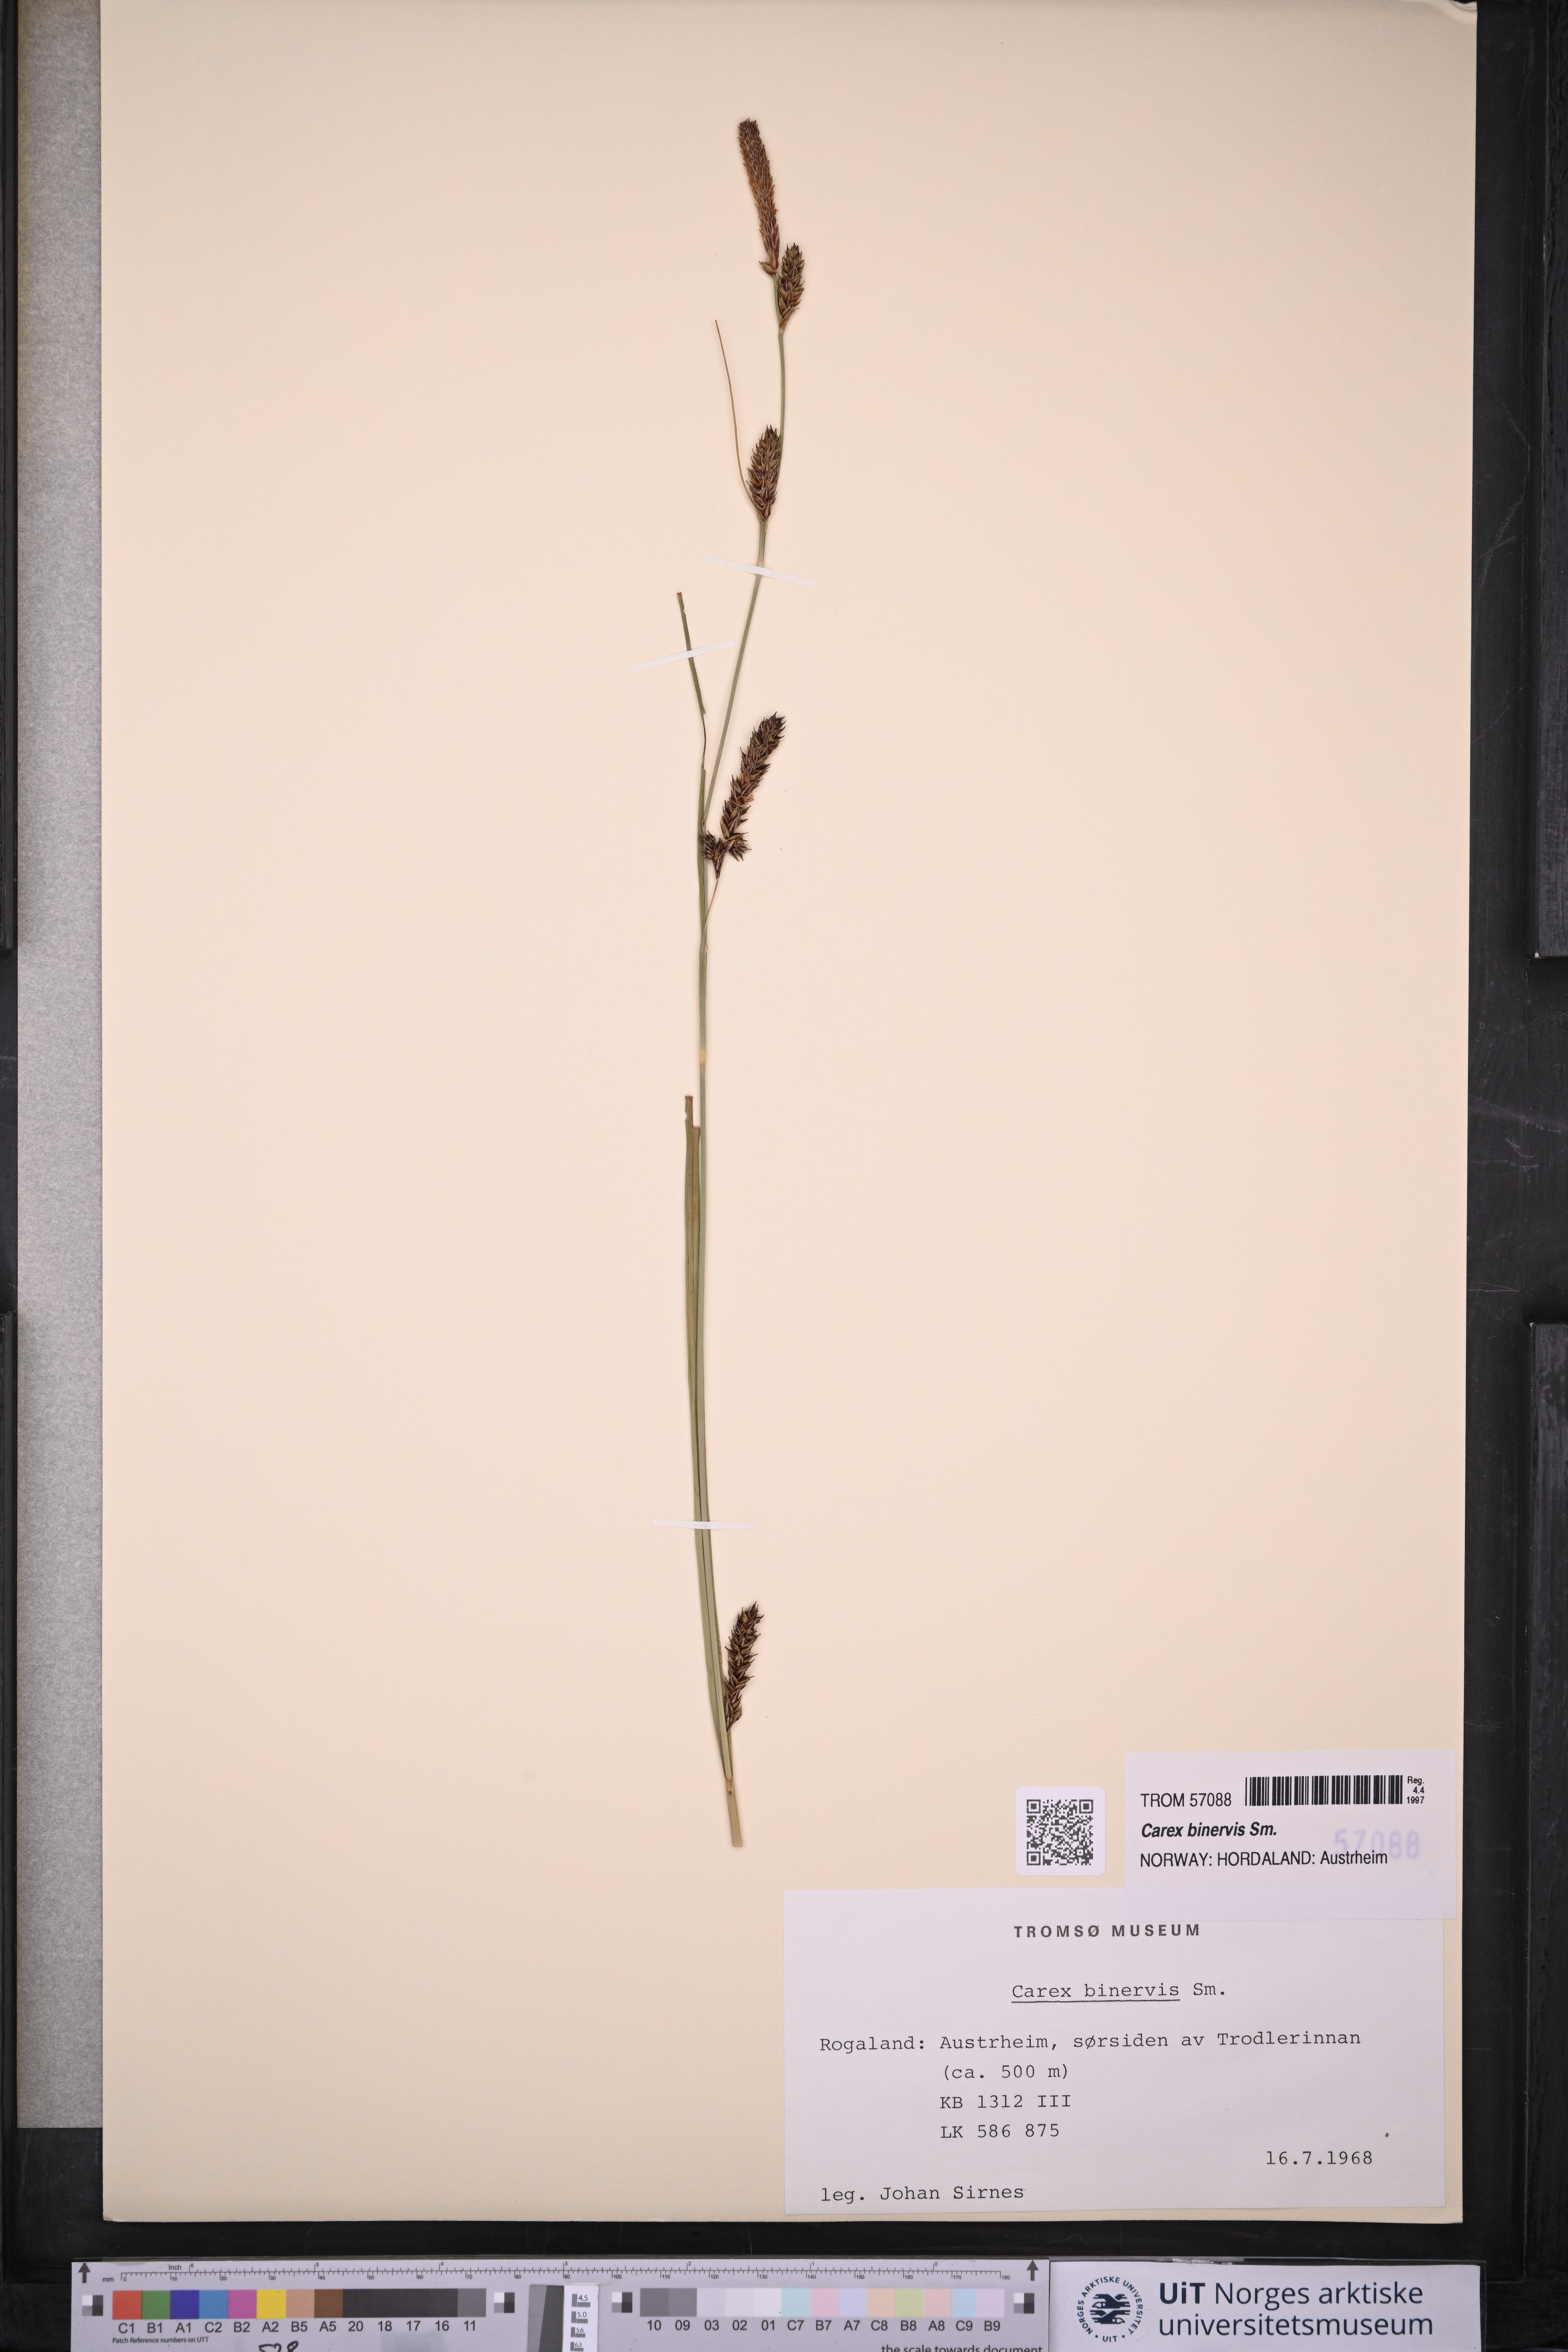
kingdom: Plantae
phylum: Tracheophyta
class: Liliopsida
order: Poales
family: Cyperaceae
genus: Carex
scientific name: Carex binervis
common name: Green-ribbed sedge
